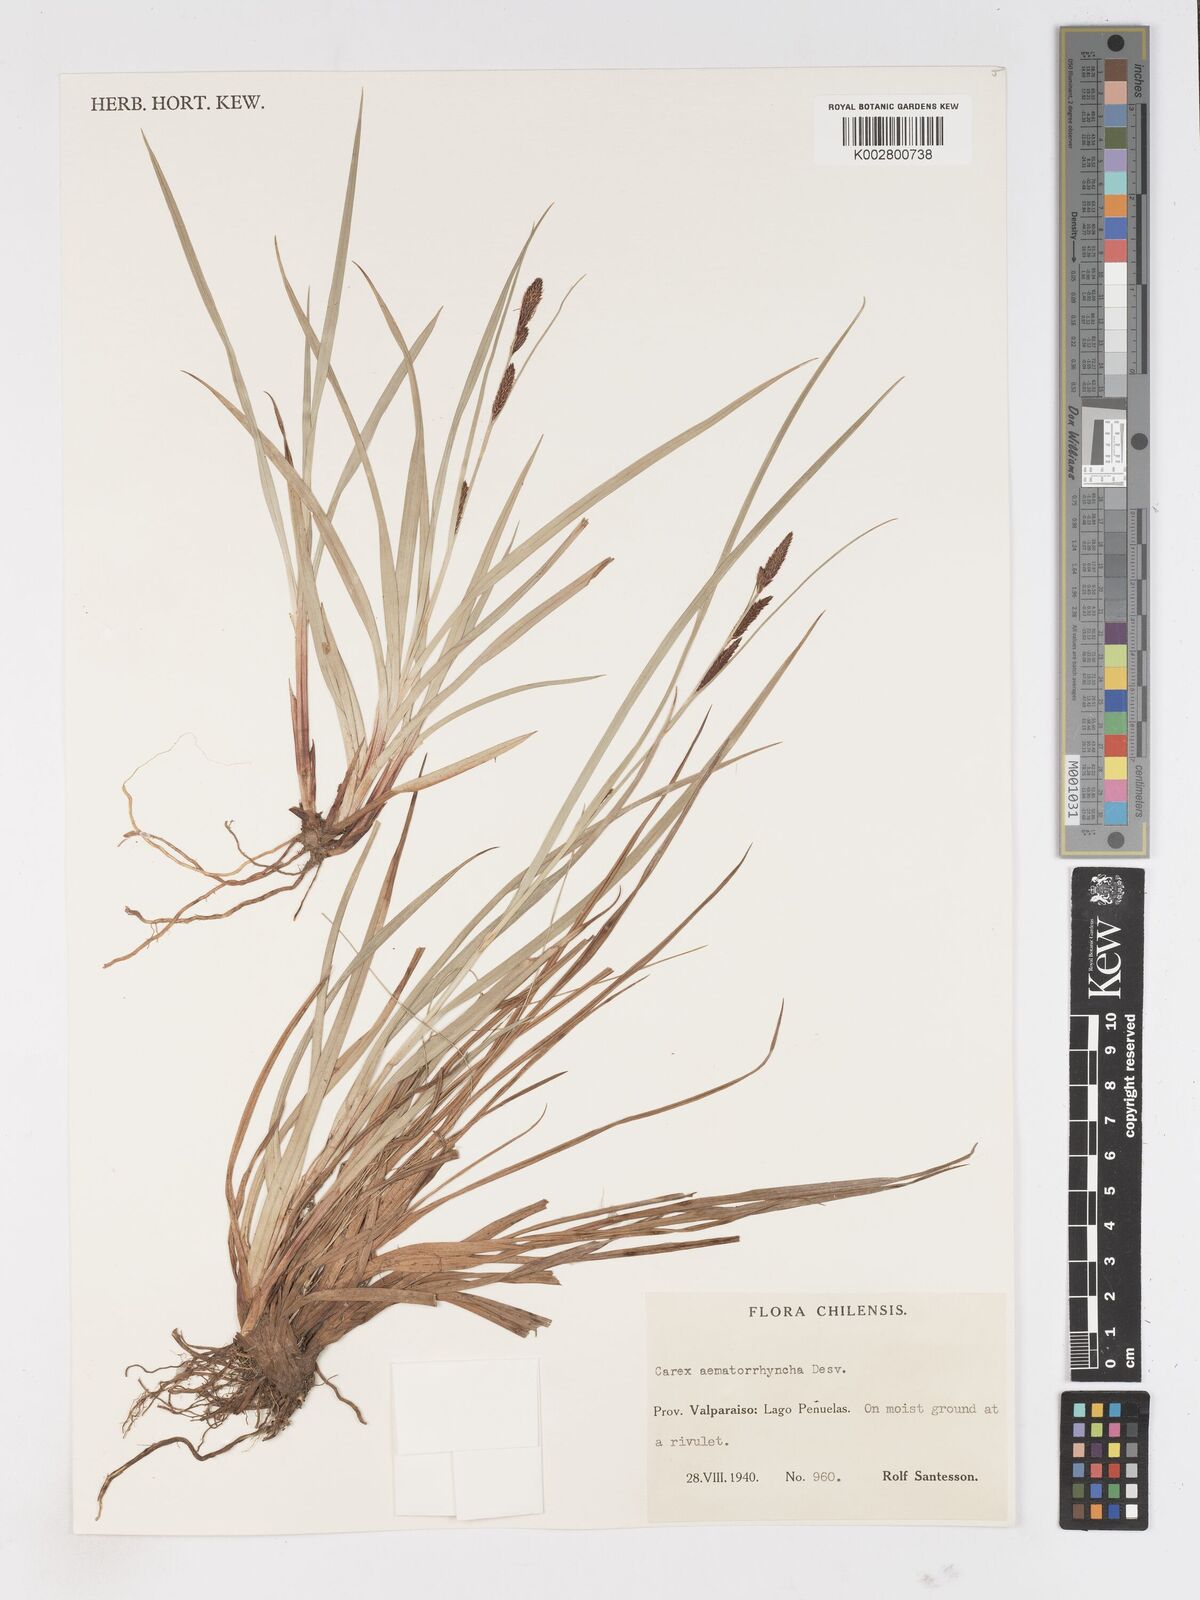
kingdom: Plantae
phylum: Tracheophyta
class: Liliopsida
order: Poales
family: Cyperaceae
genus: Carex
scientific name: Carex aematorhyncha
